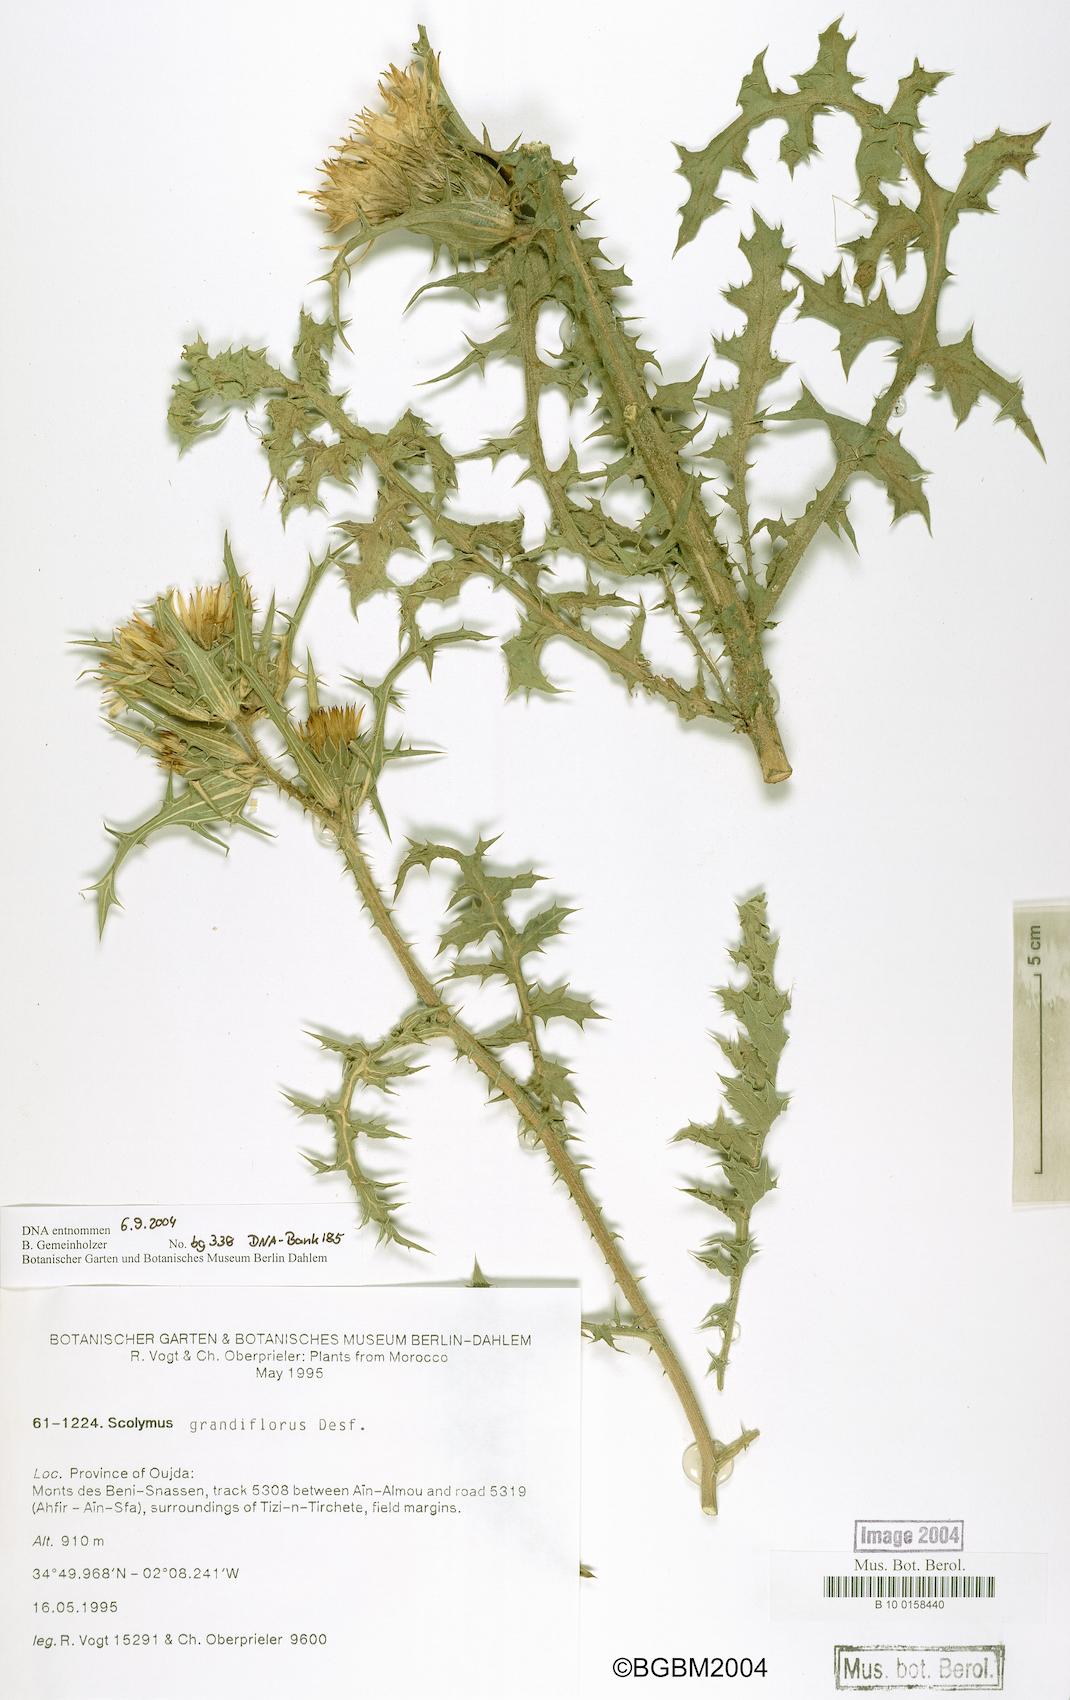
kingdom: Plantae
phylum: Tracheophyta
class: Magnoliopsida
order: Asterales
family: Asteraceae
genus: Scolymus
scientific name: Scolymus grandiflorus
